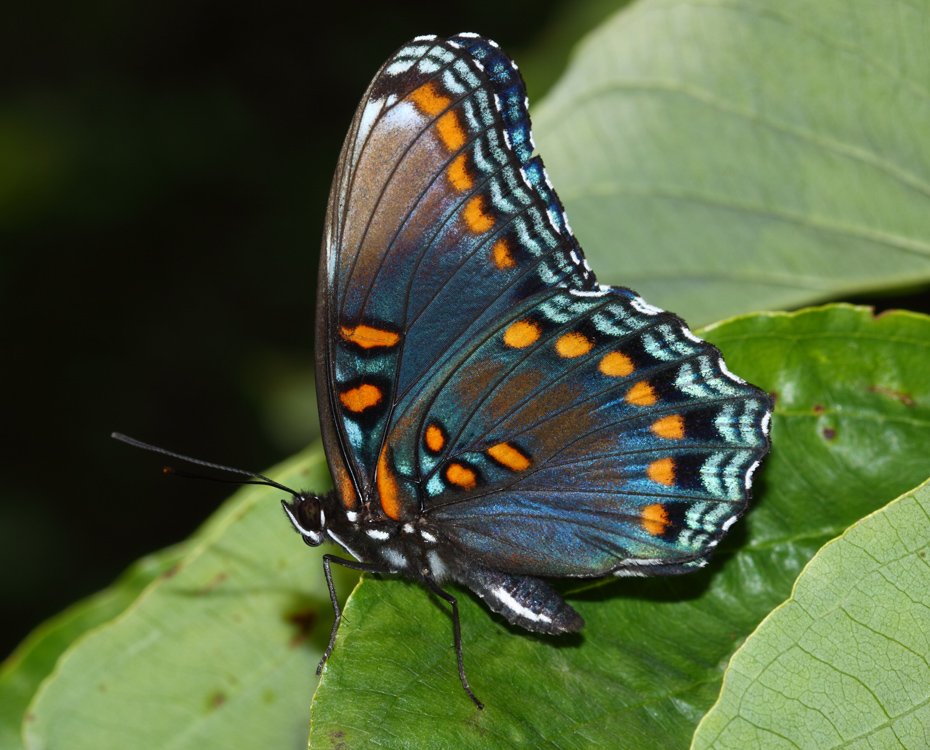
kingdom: Animalia
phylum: Arthropoda
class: Insecta
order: Lepidoptera
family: Nymphalidae
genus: Limenitis
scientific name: Limenitis astyanax
